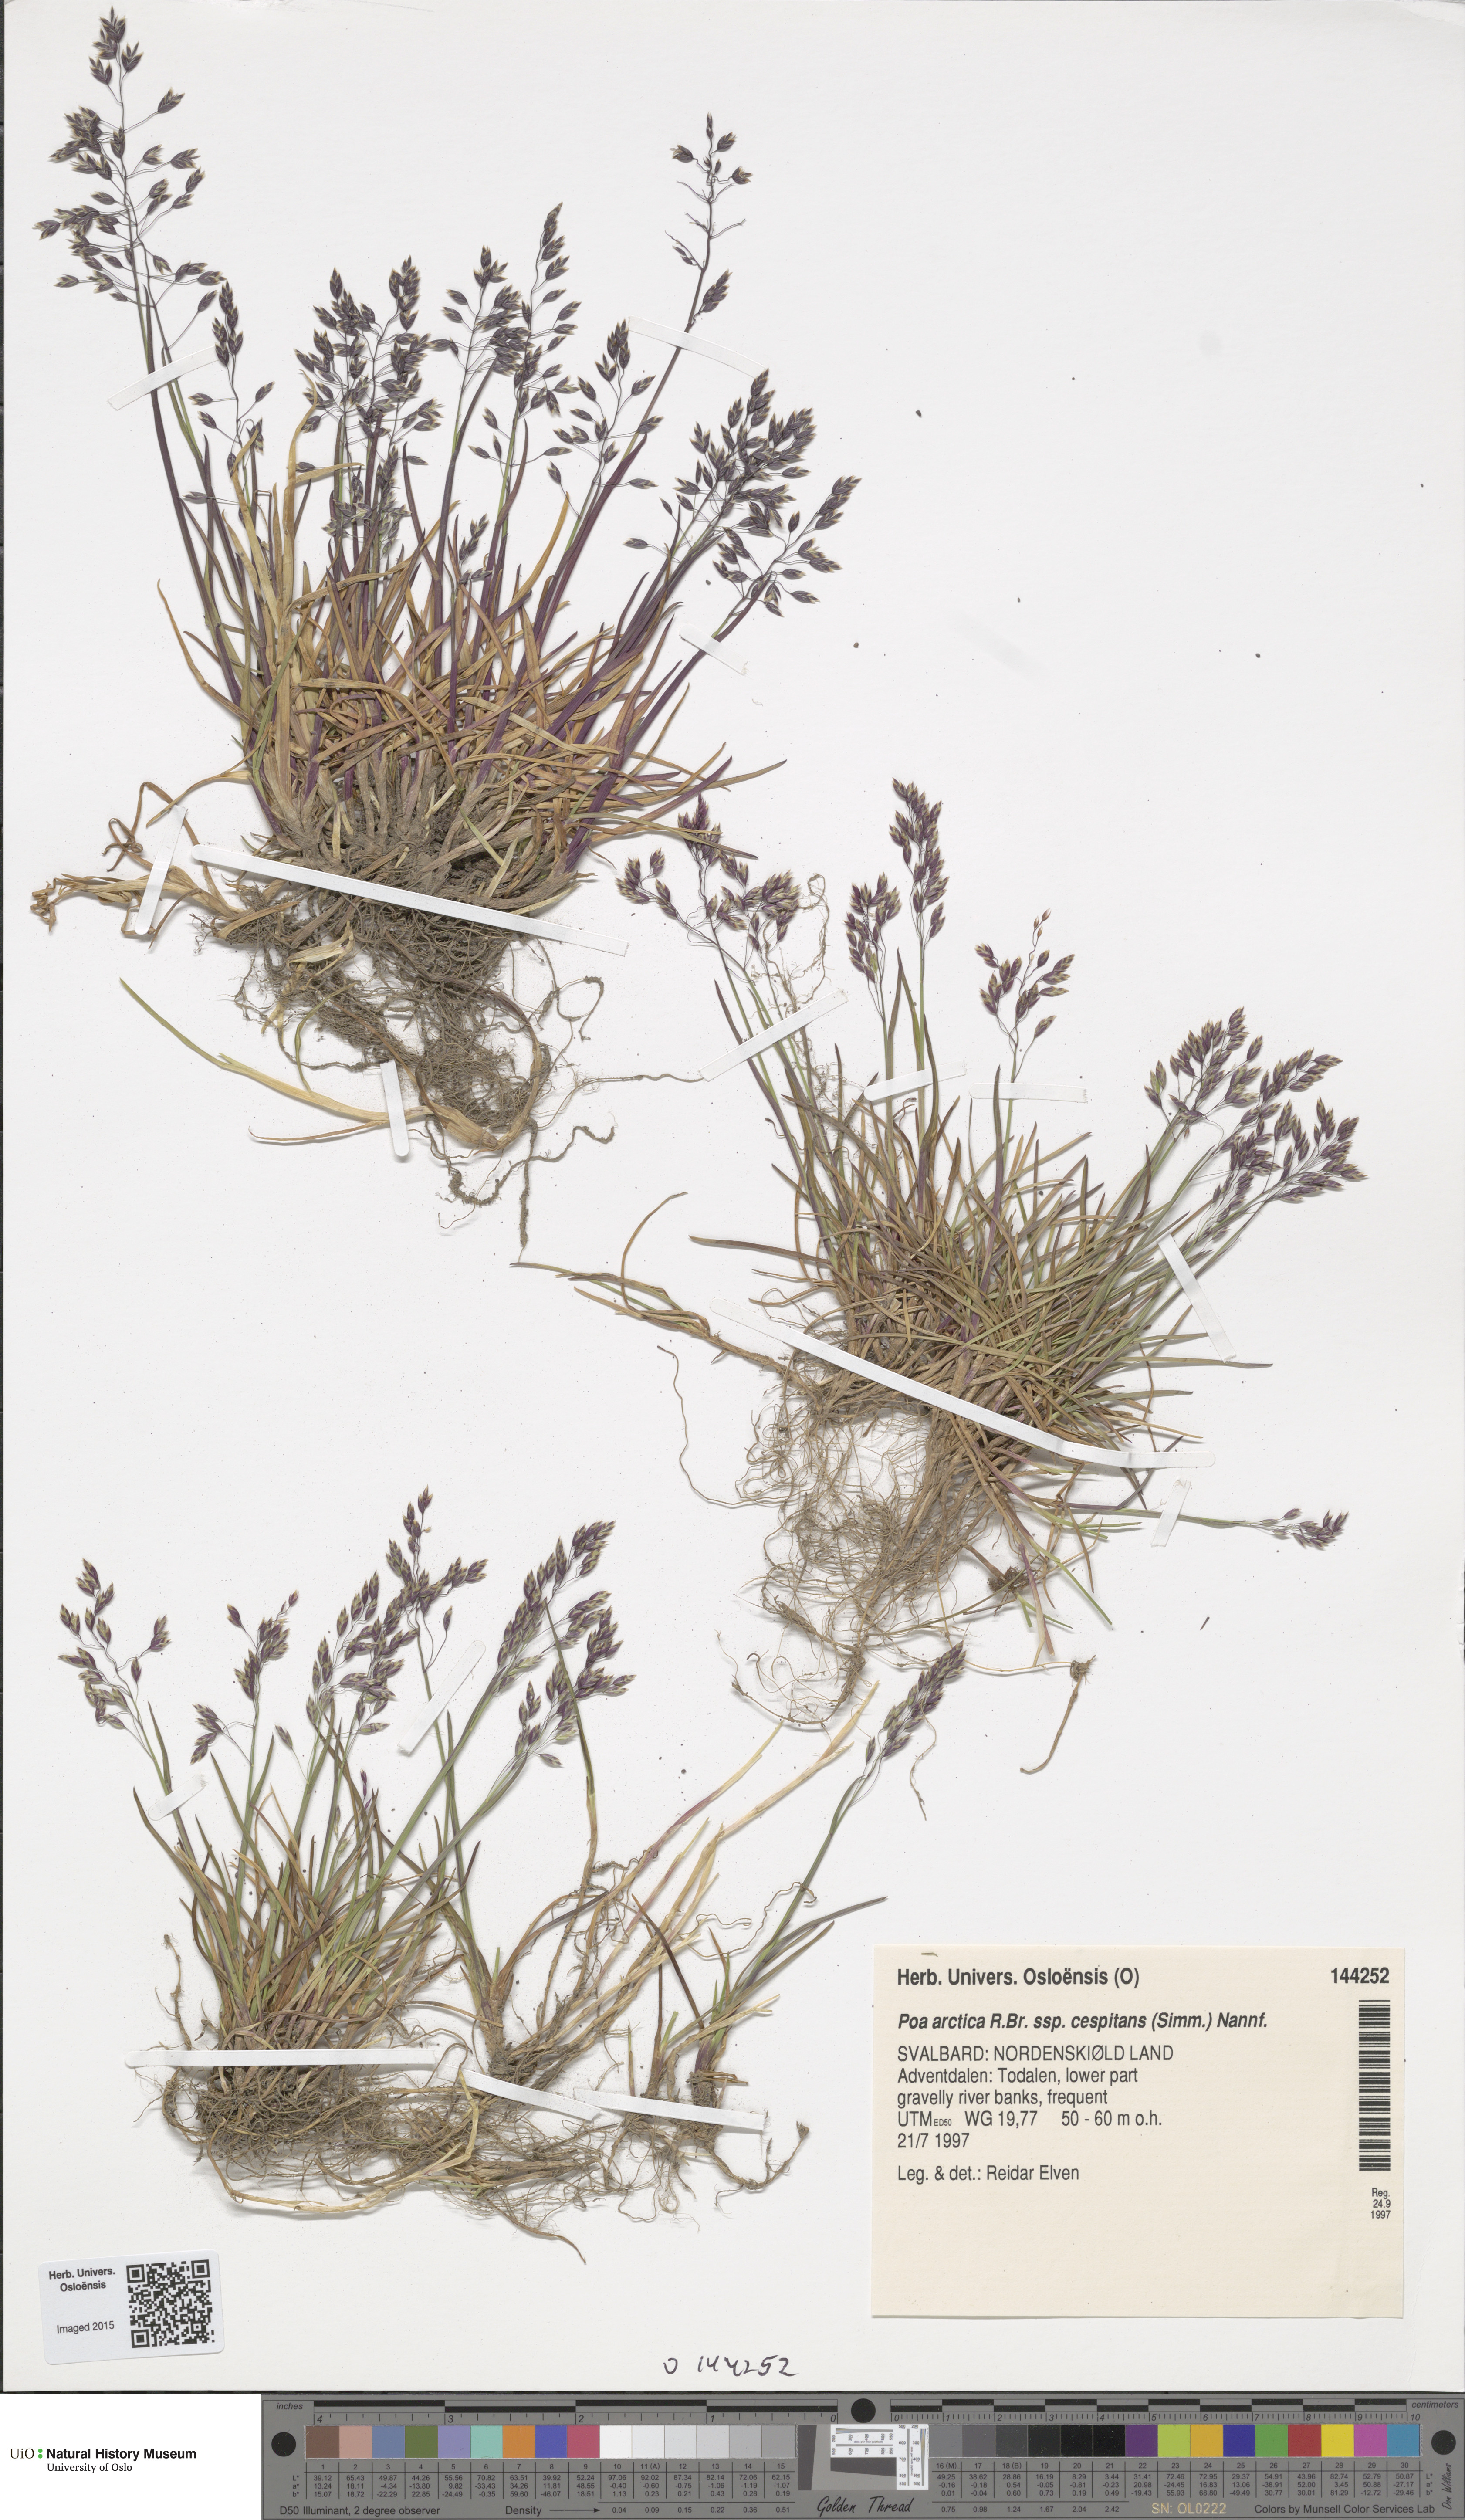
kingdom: Plantae
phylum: Tracheophyta
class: Liliopsida
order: Poales
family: Poaceae
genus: Poa
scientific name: Poa tolmatchewii
